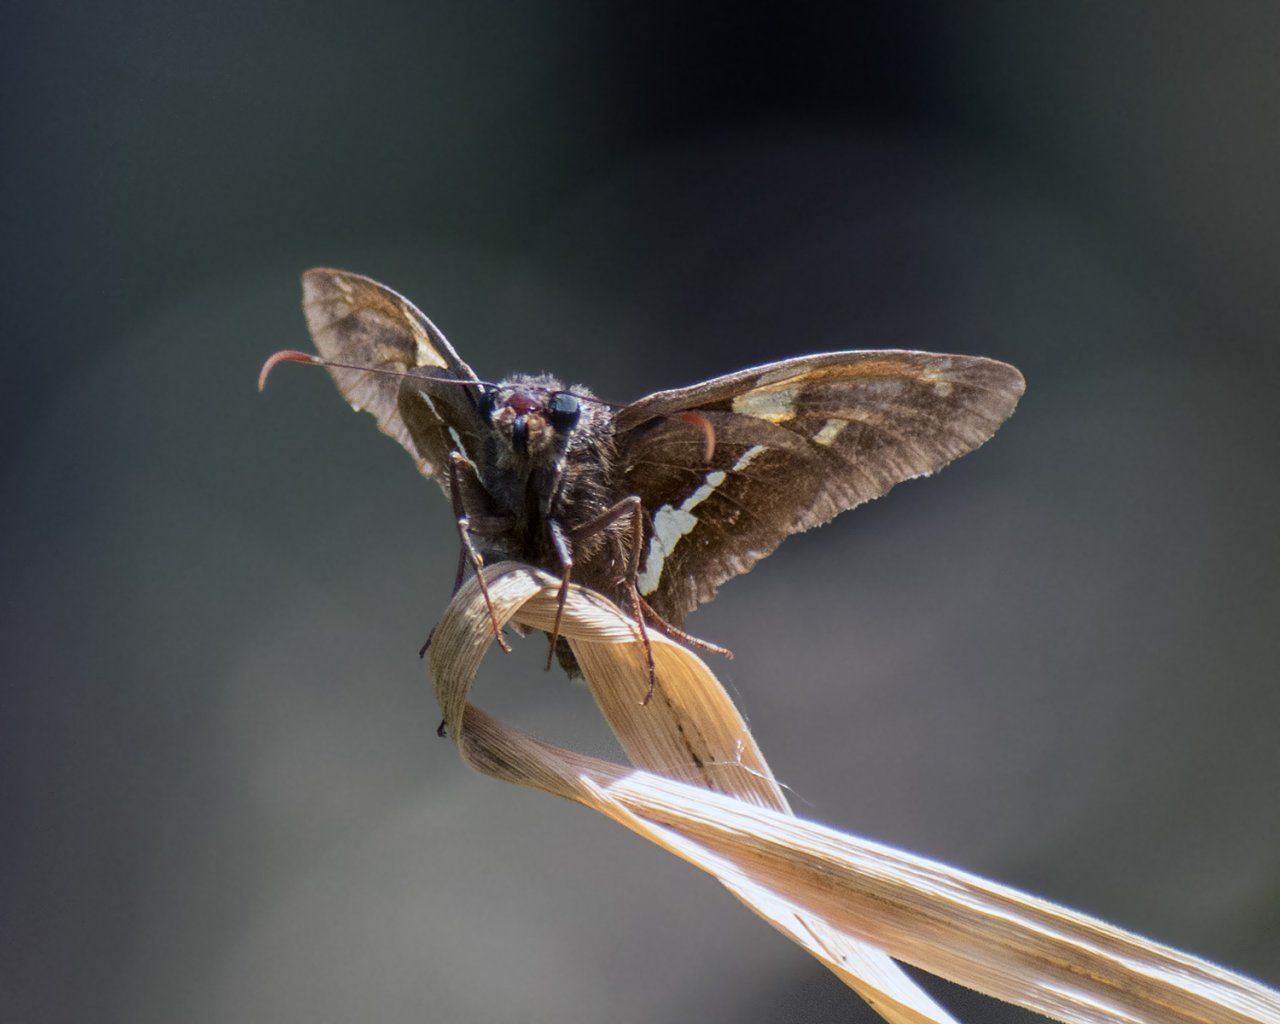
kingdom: Animalia
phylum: Arthropoda
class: Insecta
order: Lepidoptera
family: Hesperiidae
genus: Epargyreus
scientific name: Epargyreus clarus
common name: Silver-spotted Skipper
